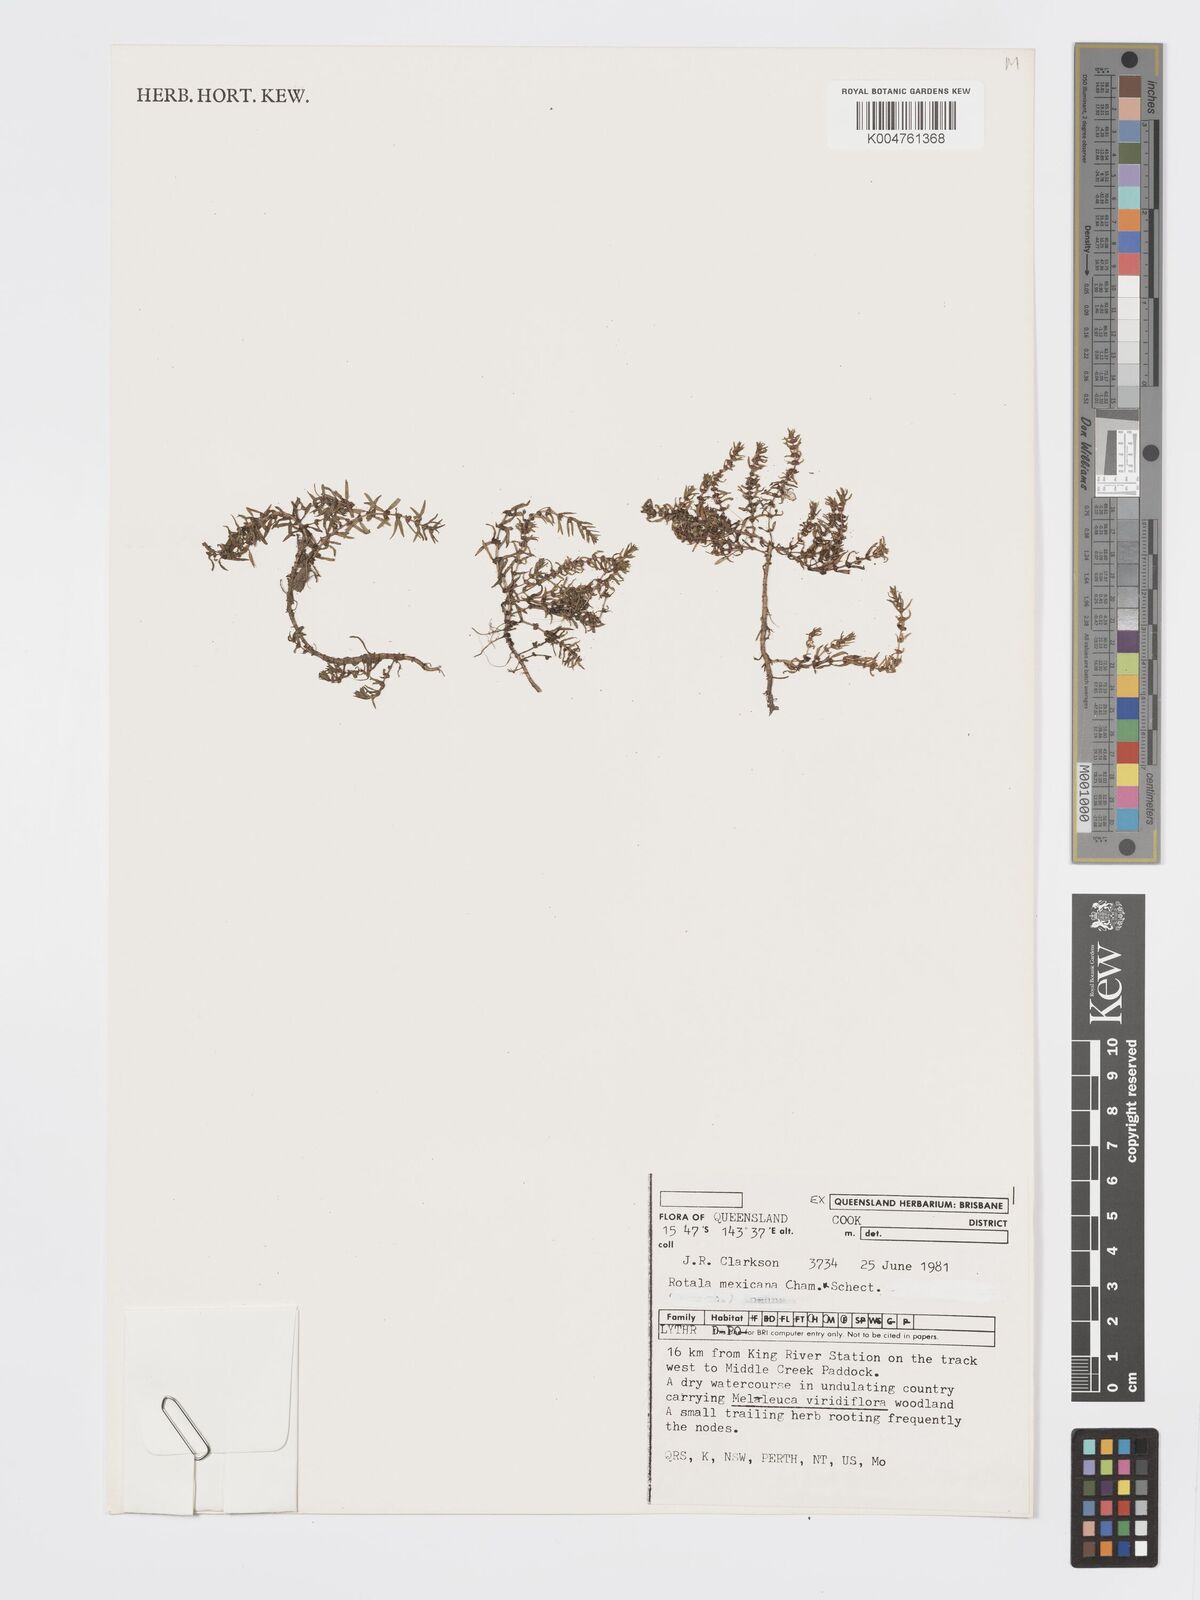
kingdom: Plantae
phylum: Tracheophyta
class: Magnoliopsida
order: Myrtales
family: Lythraceae
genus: Rotala
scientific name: Rotala mexicana
